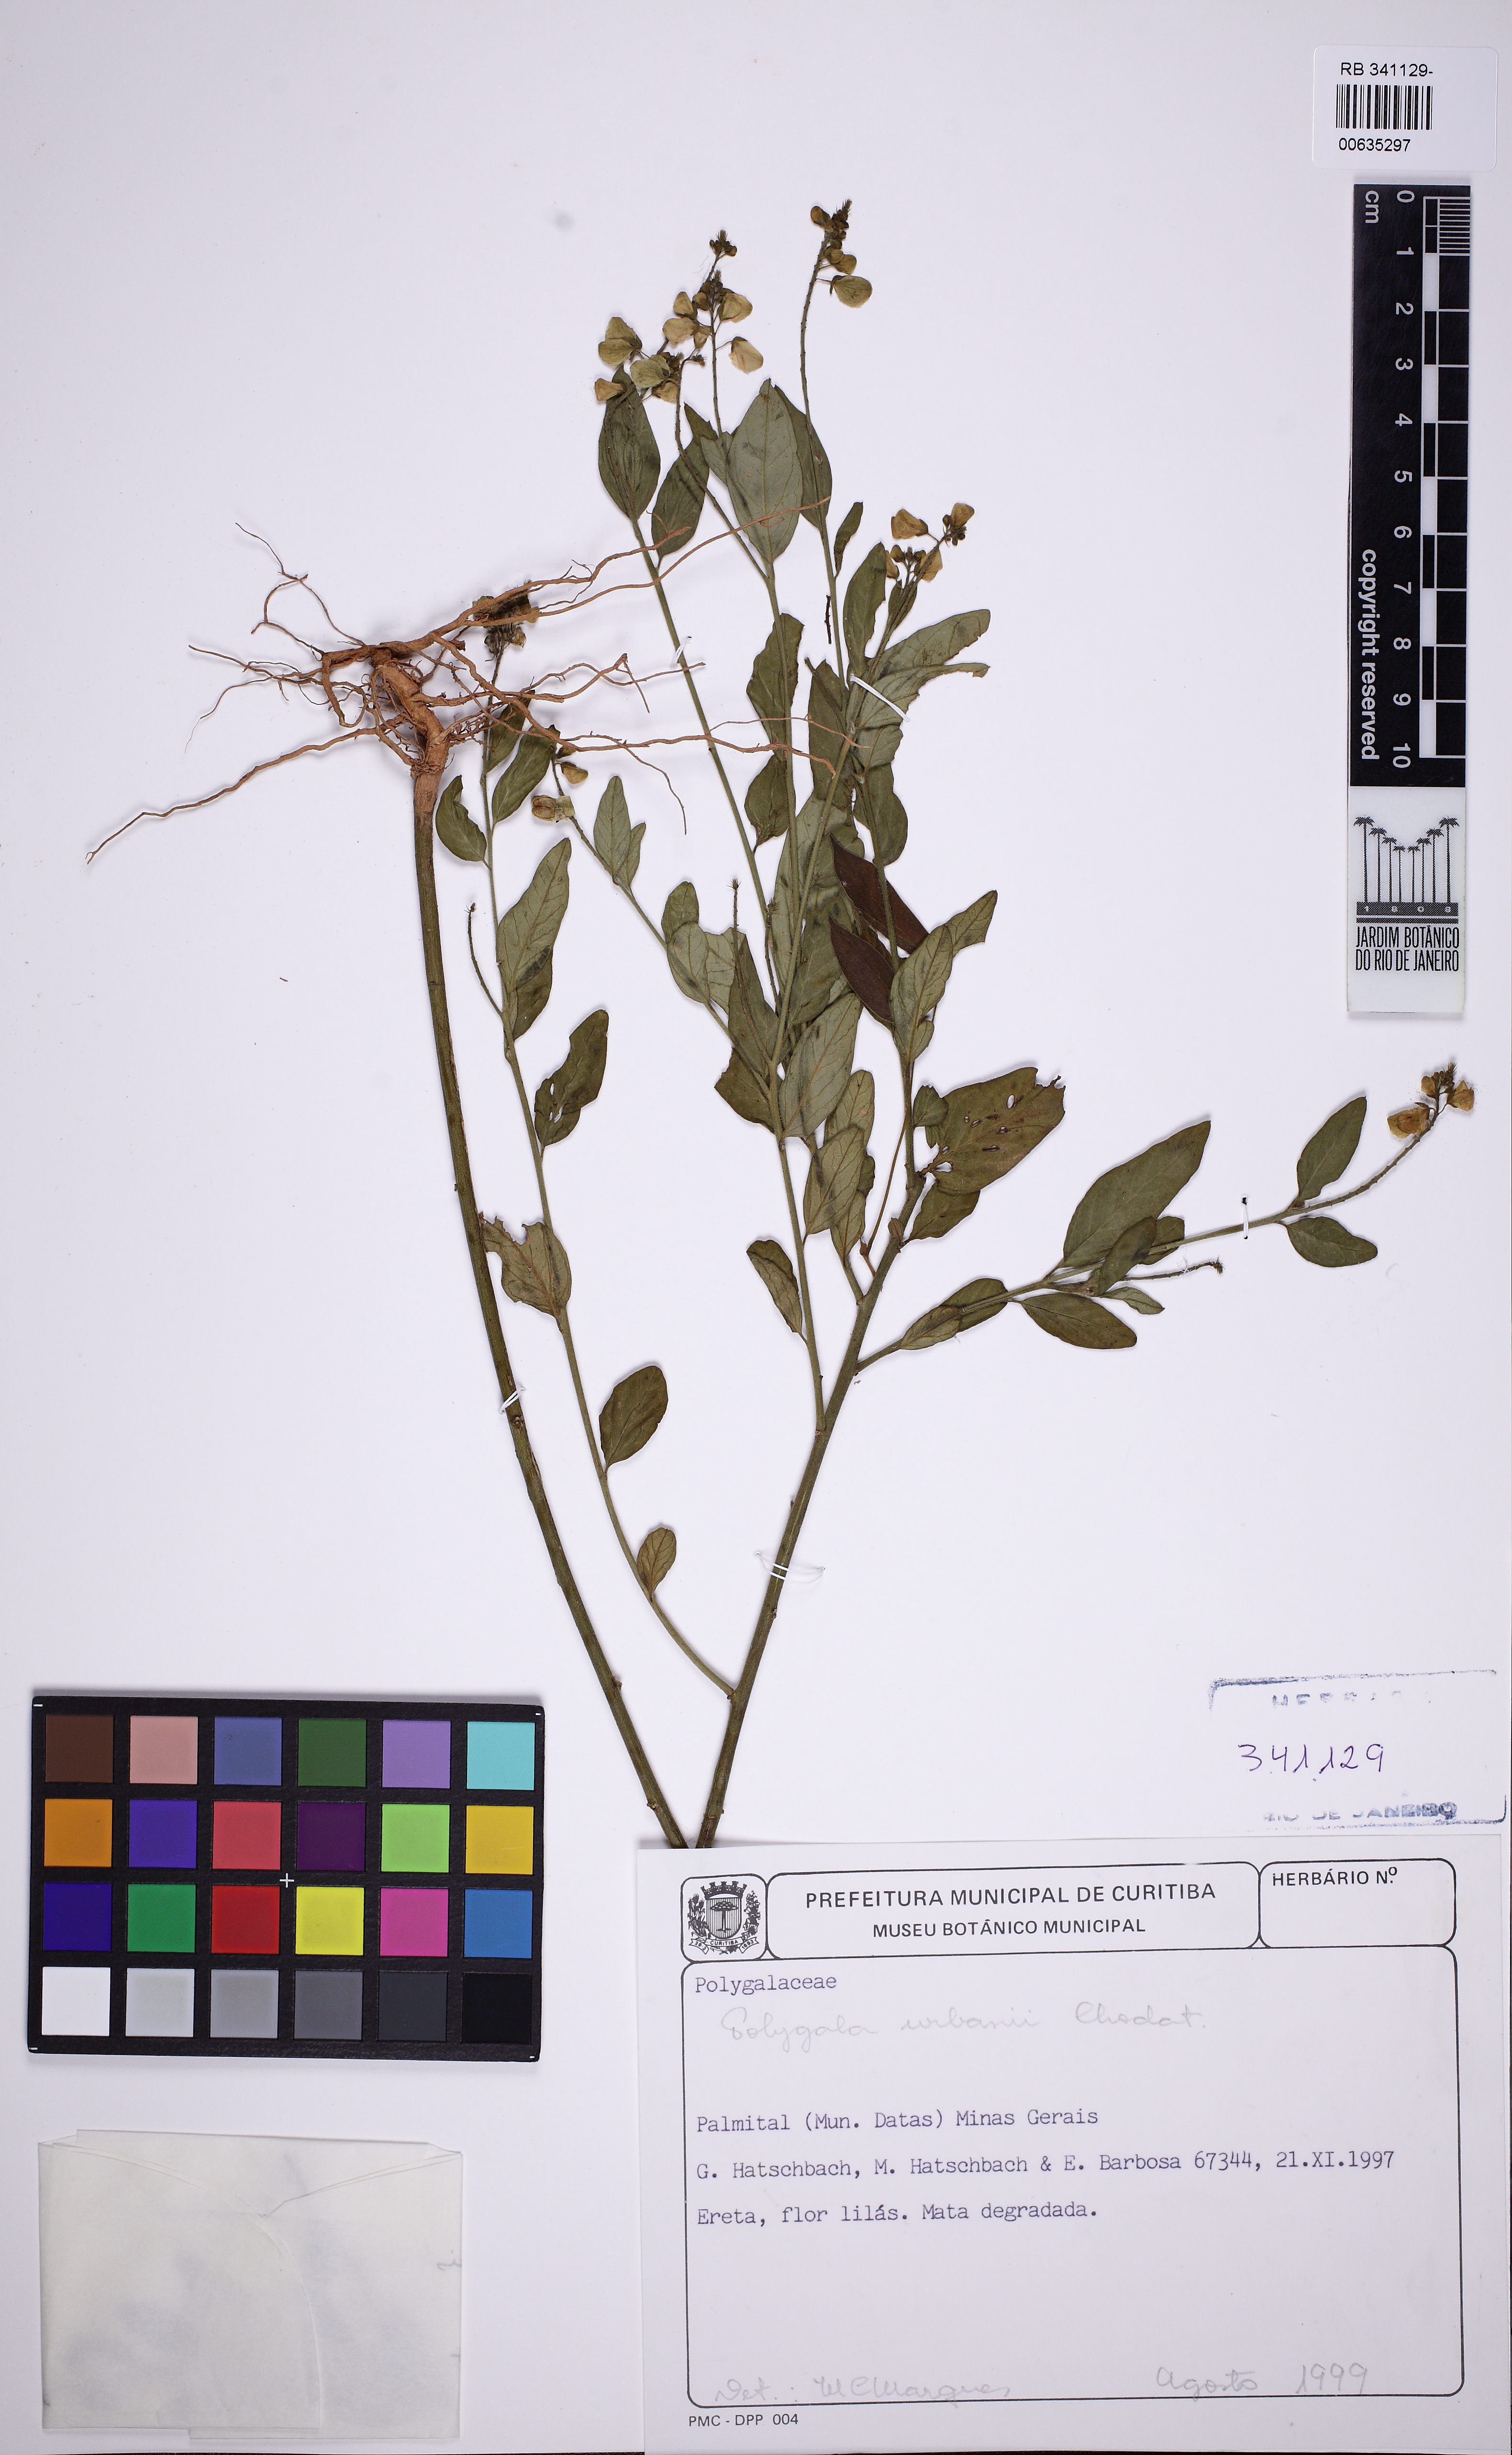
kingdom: Plantae
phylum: Tracheophyta
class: Magnoliopsida
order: Fabales
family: Polygalaceae
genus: Asemeia
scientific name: Asemeia monninoides
